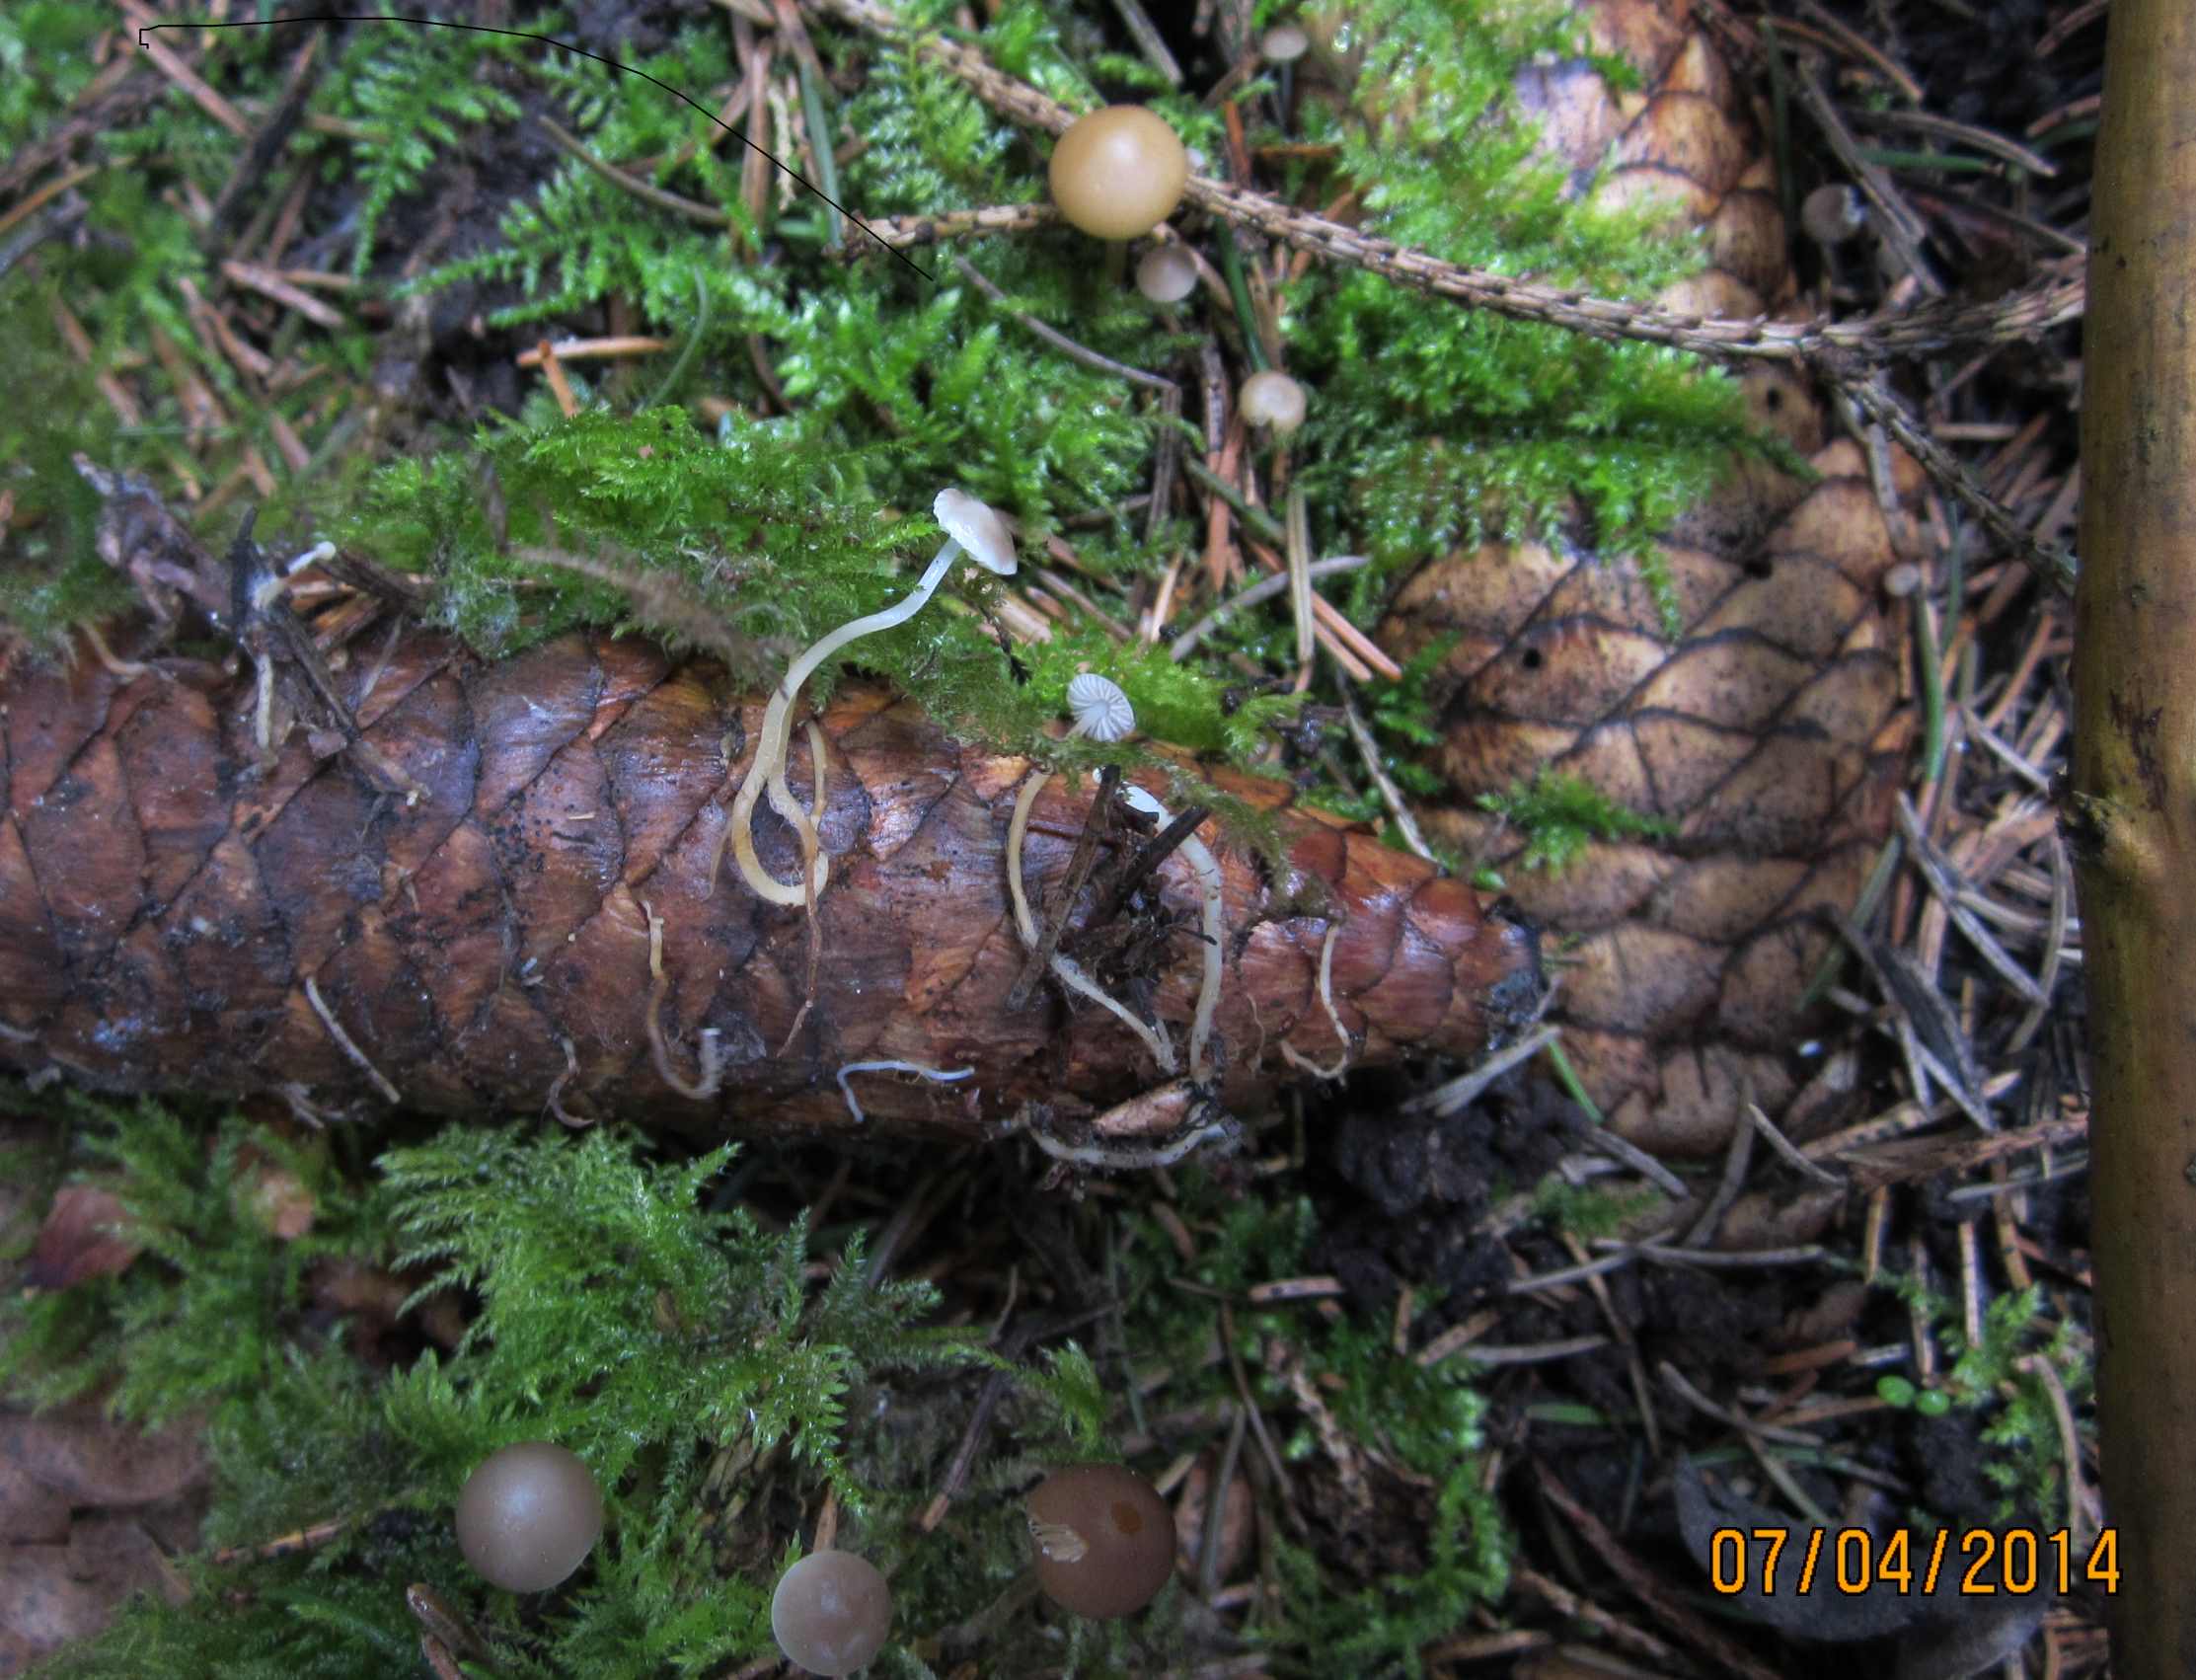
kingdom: Fungi
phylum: Basidiomycota
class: Agaricomycetes
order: Agaricales
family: Physalacriaceae
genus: Strobilurus
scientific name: Strobilurus esculentus
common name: gran-koglehat
